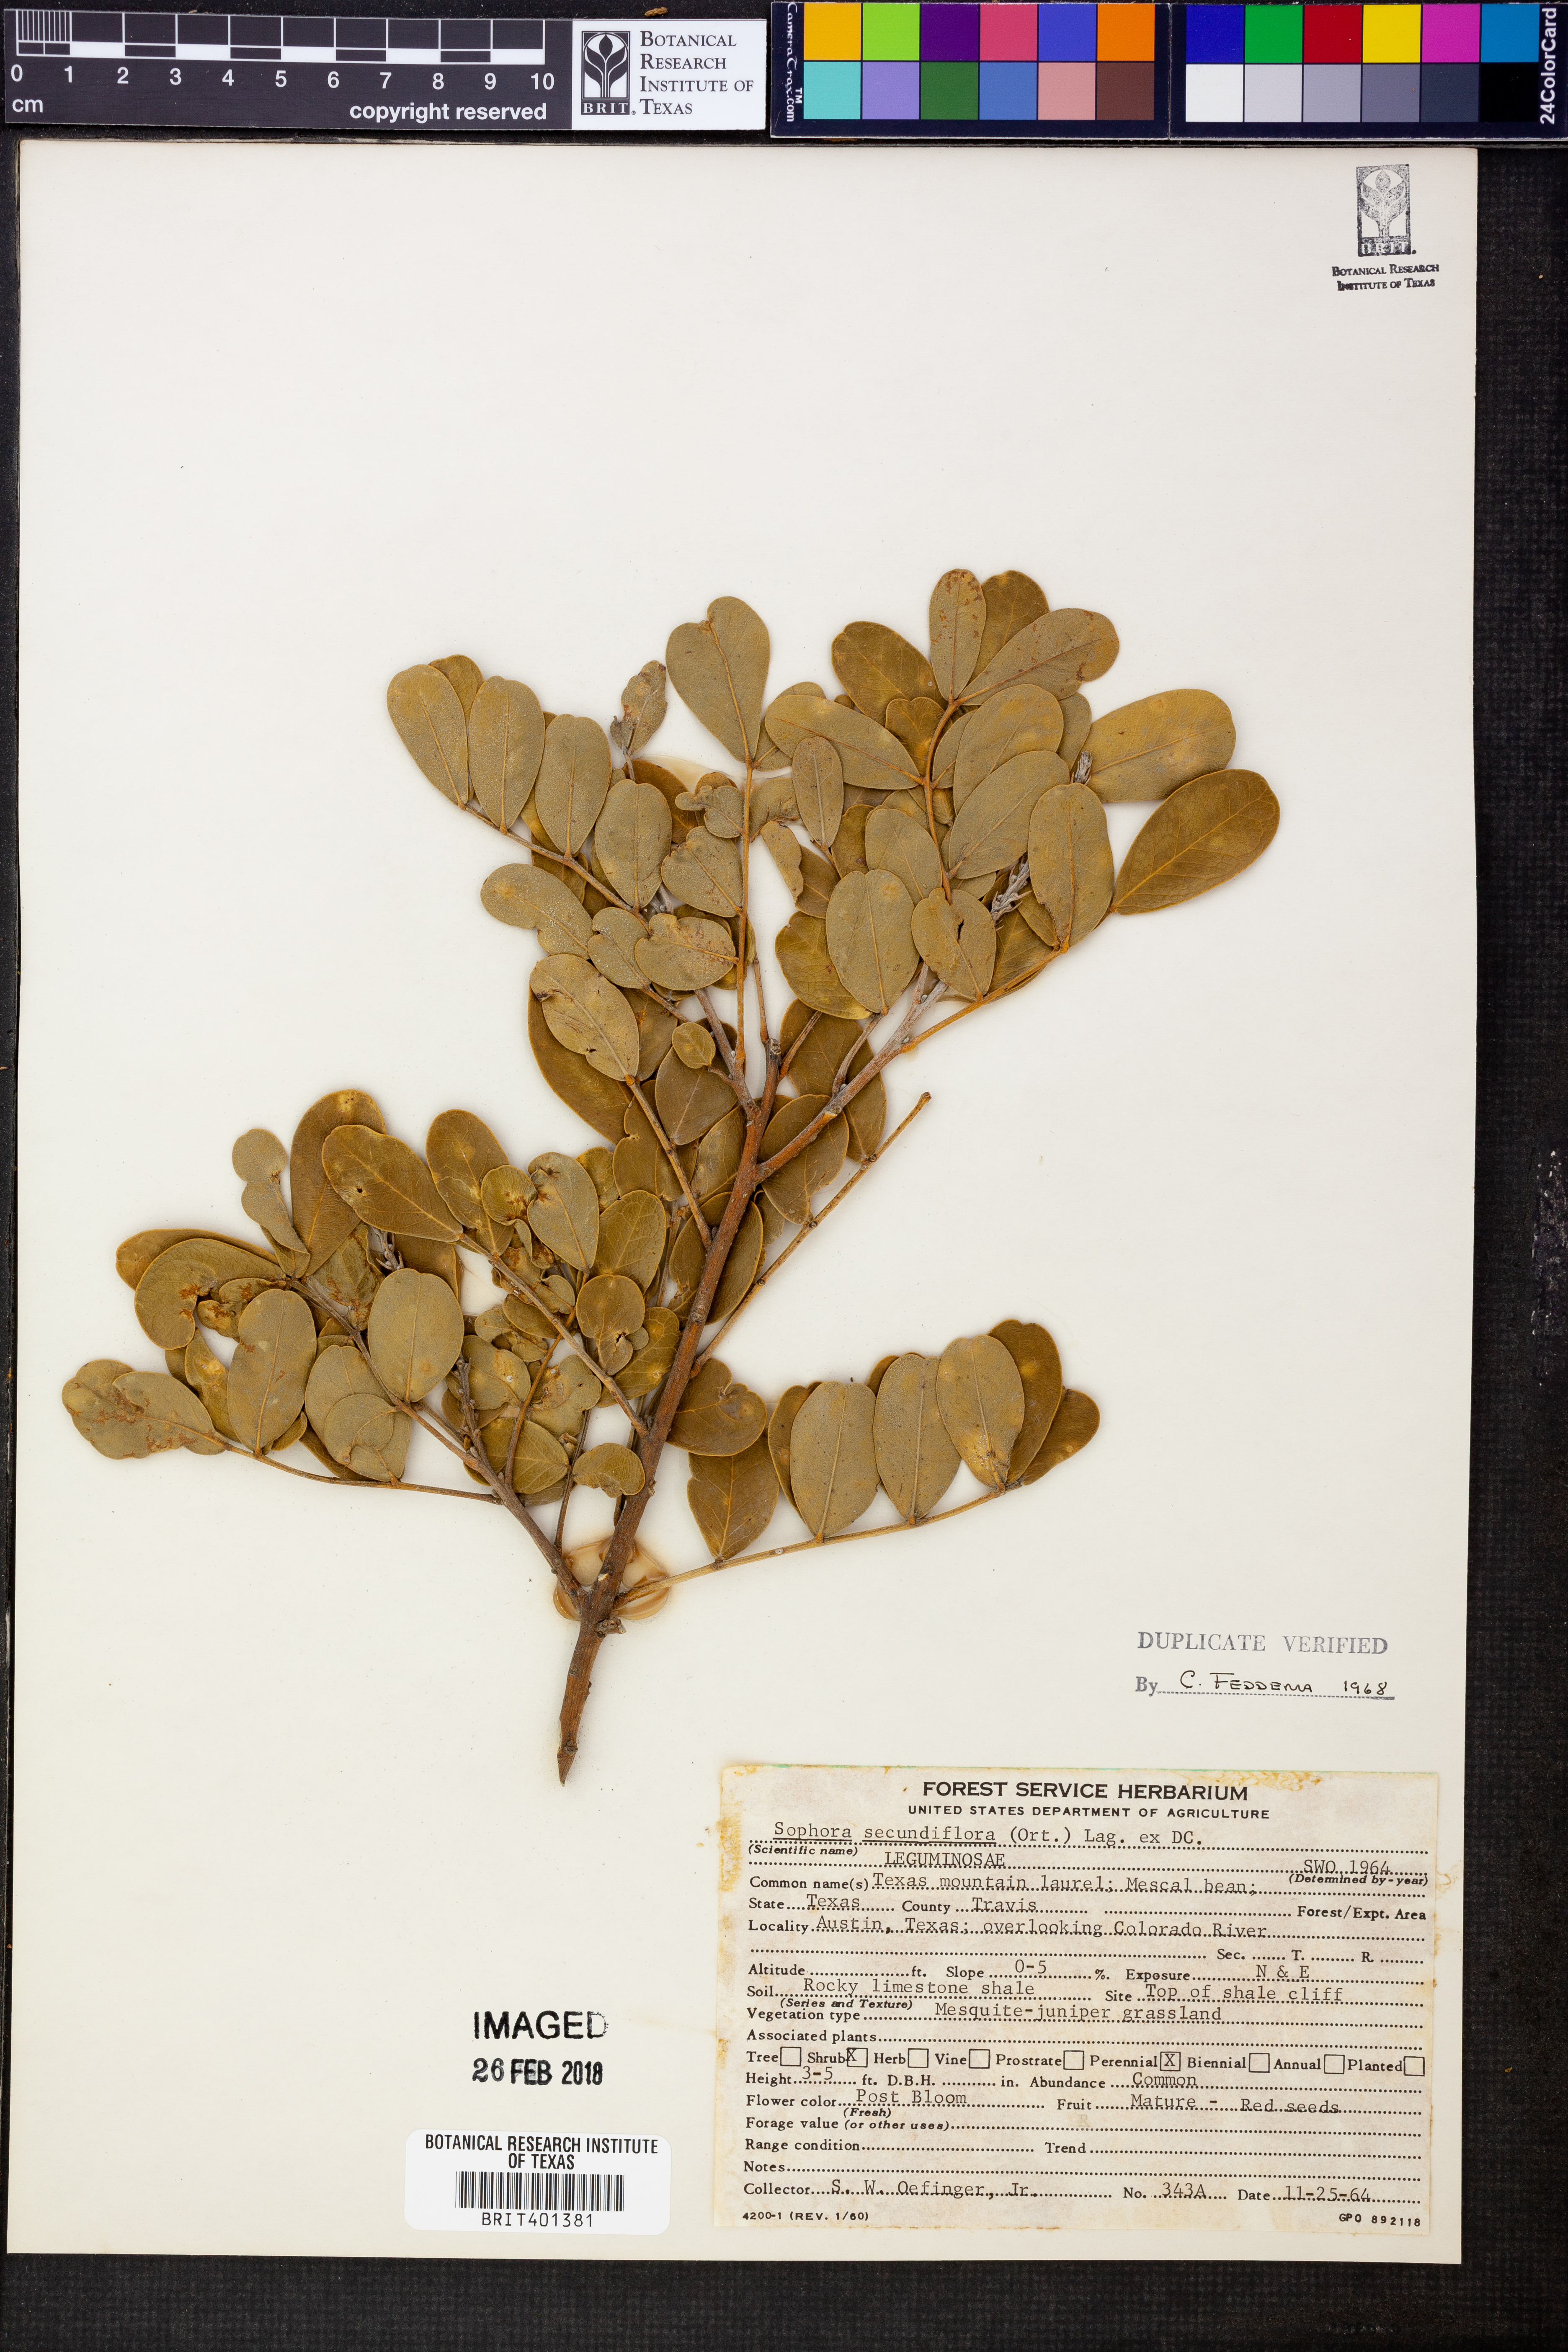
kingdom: Plantae
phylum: Tracheophyta
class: Magnoliopsida
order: Fabales
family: Fabaceae
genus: Dermatophyllum
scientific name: Dermatophyllum secundiflorum
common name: Texas-mountain-laurel
